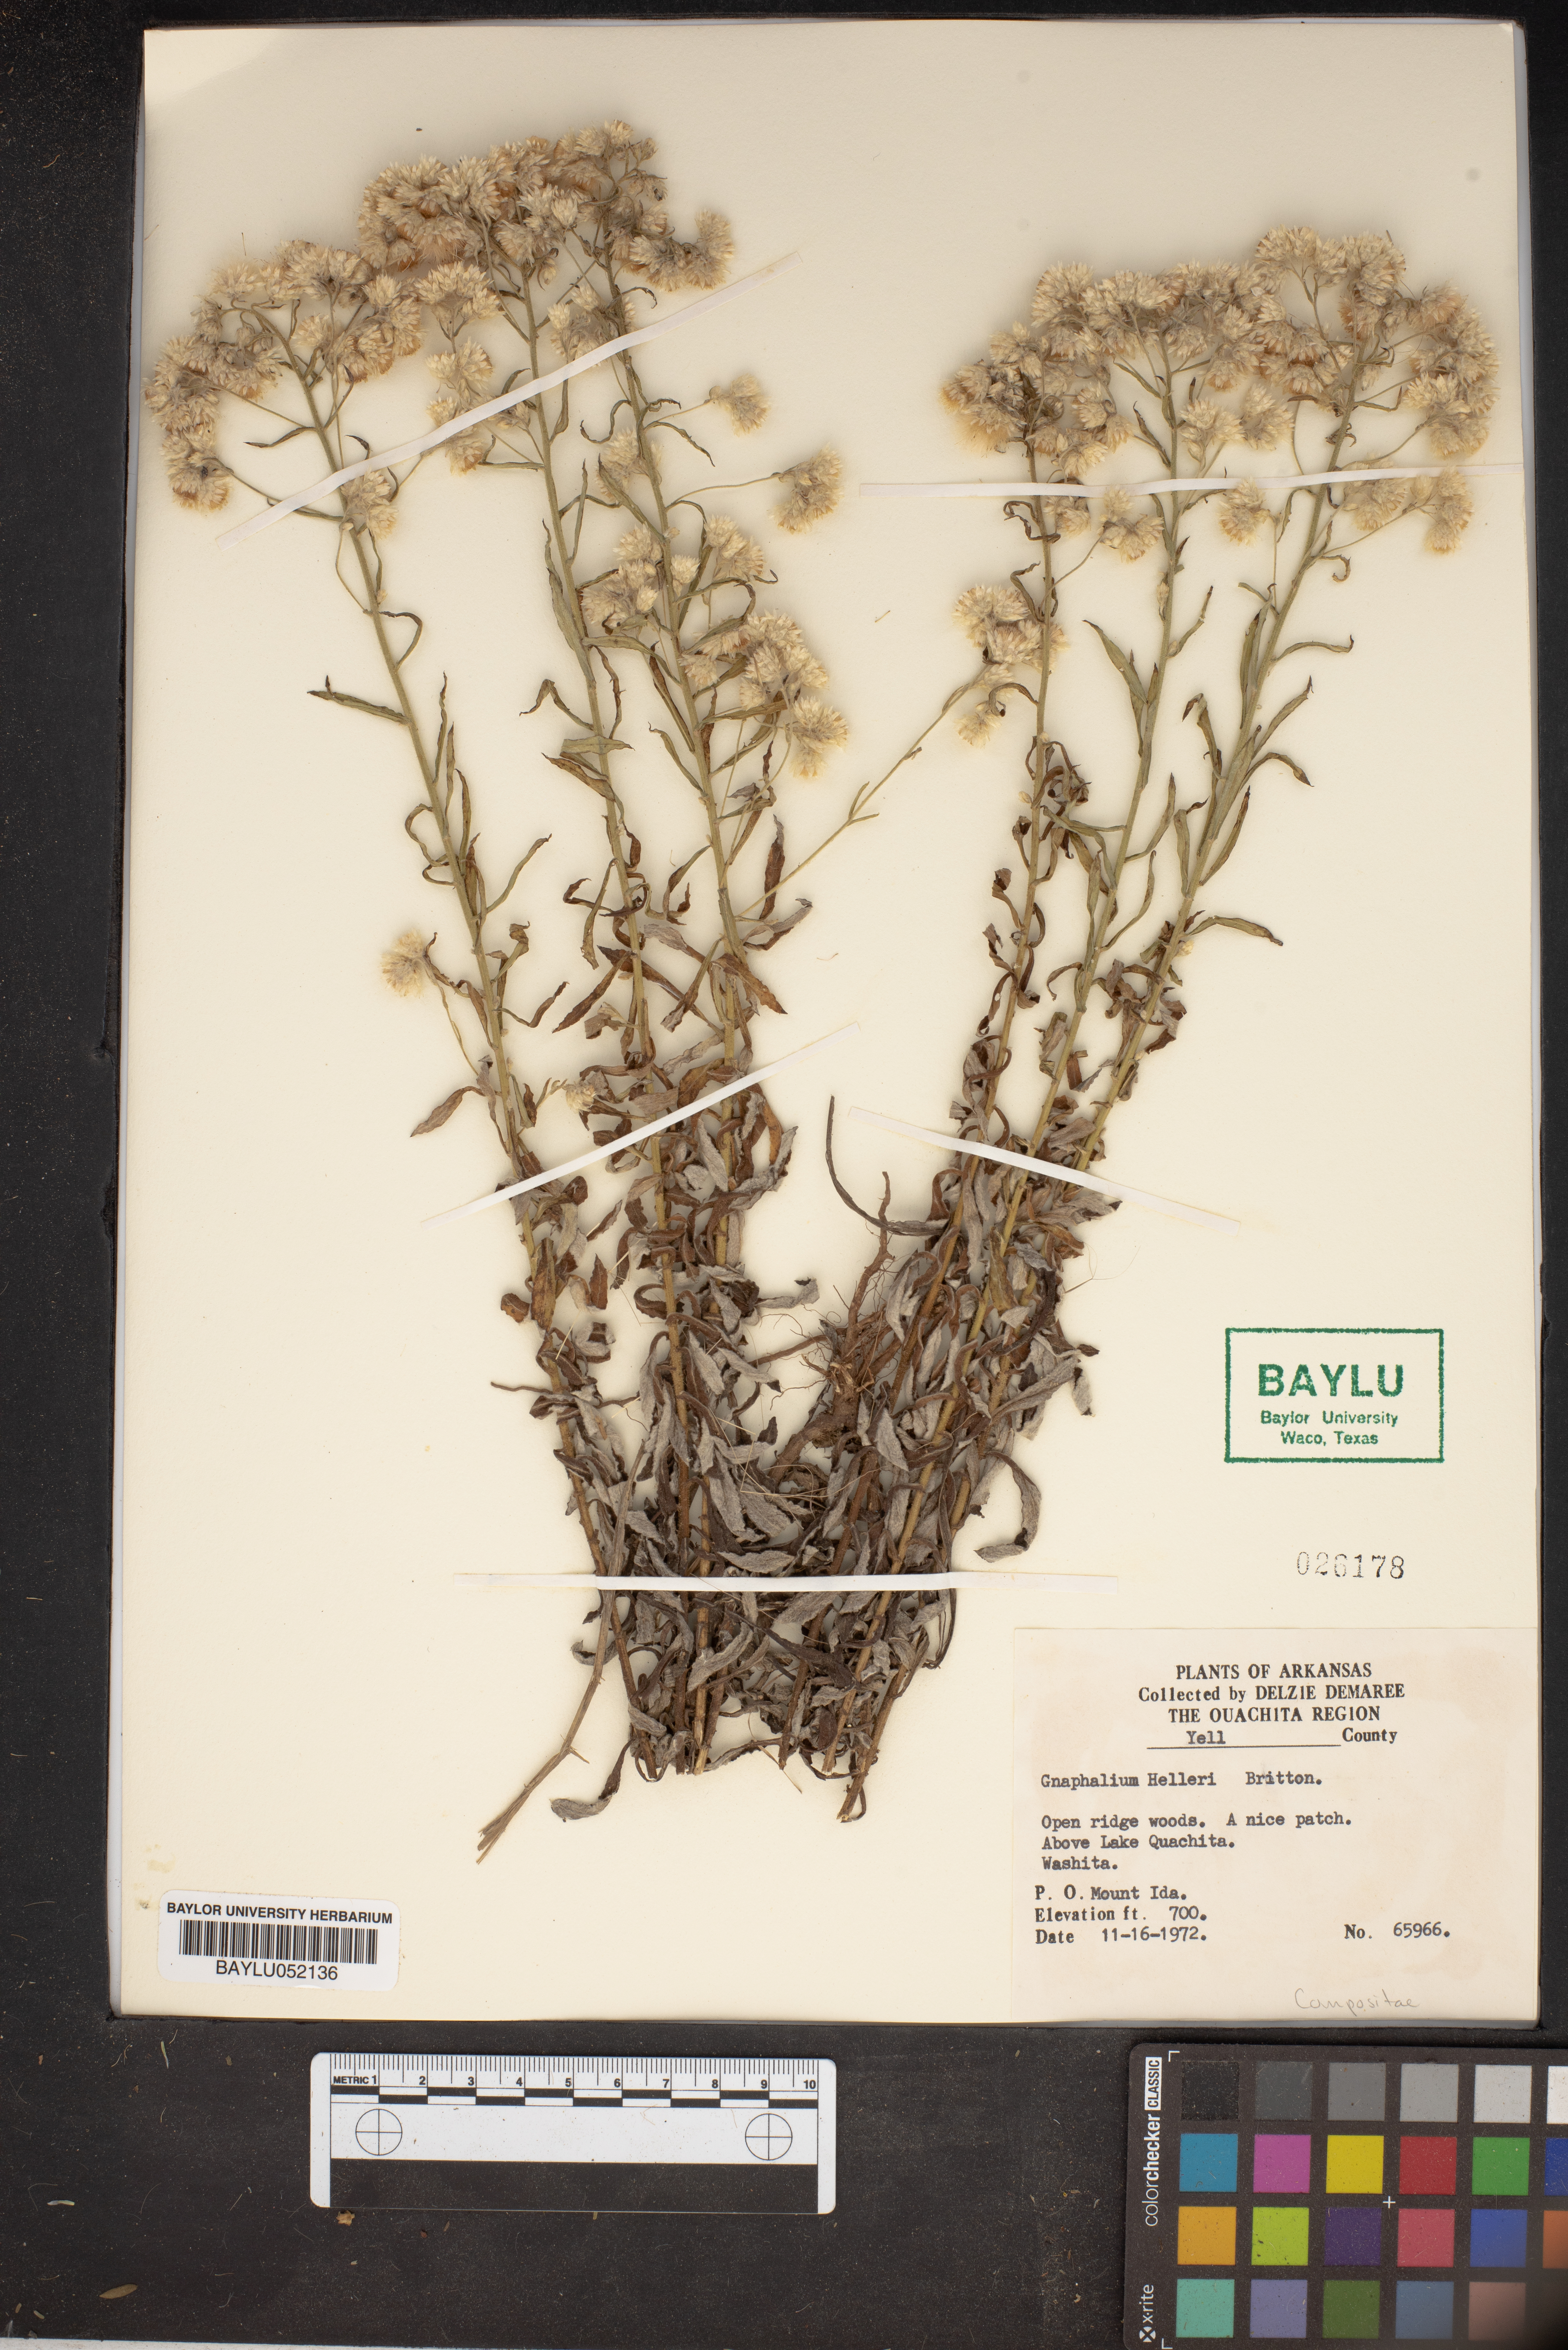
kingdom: Plantae
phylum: Tracheophyta
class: Magnoliopsida
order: Asterales
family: Asteraceae
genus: Pseudognaphalium
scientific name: Pseudognaphalium helleri
